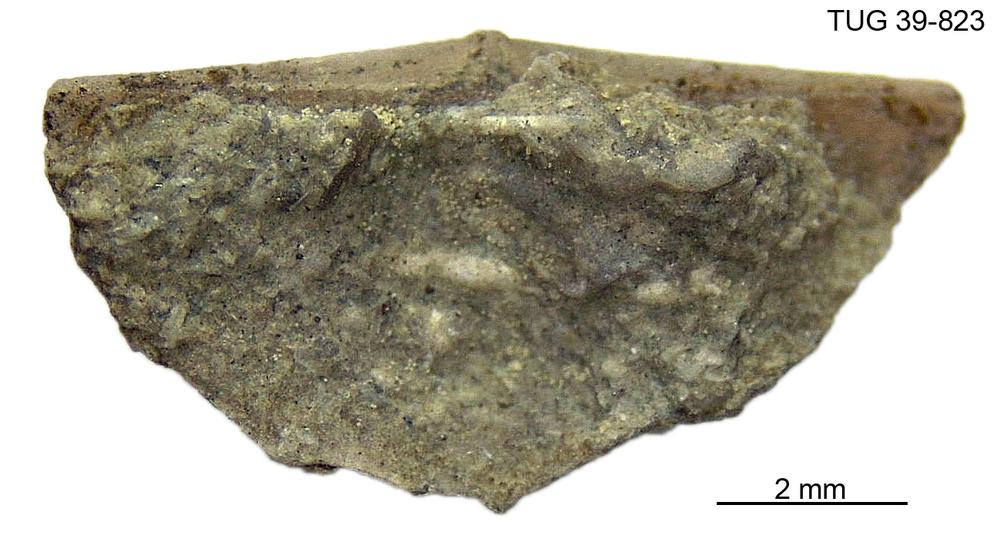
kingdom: Animalia
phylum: Brachiopoda
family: Sowerbyellidae
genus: Sowerbyella
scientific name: Sowerbyella
